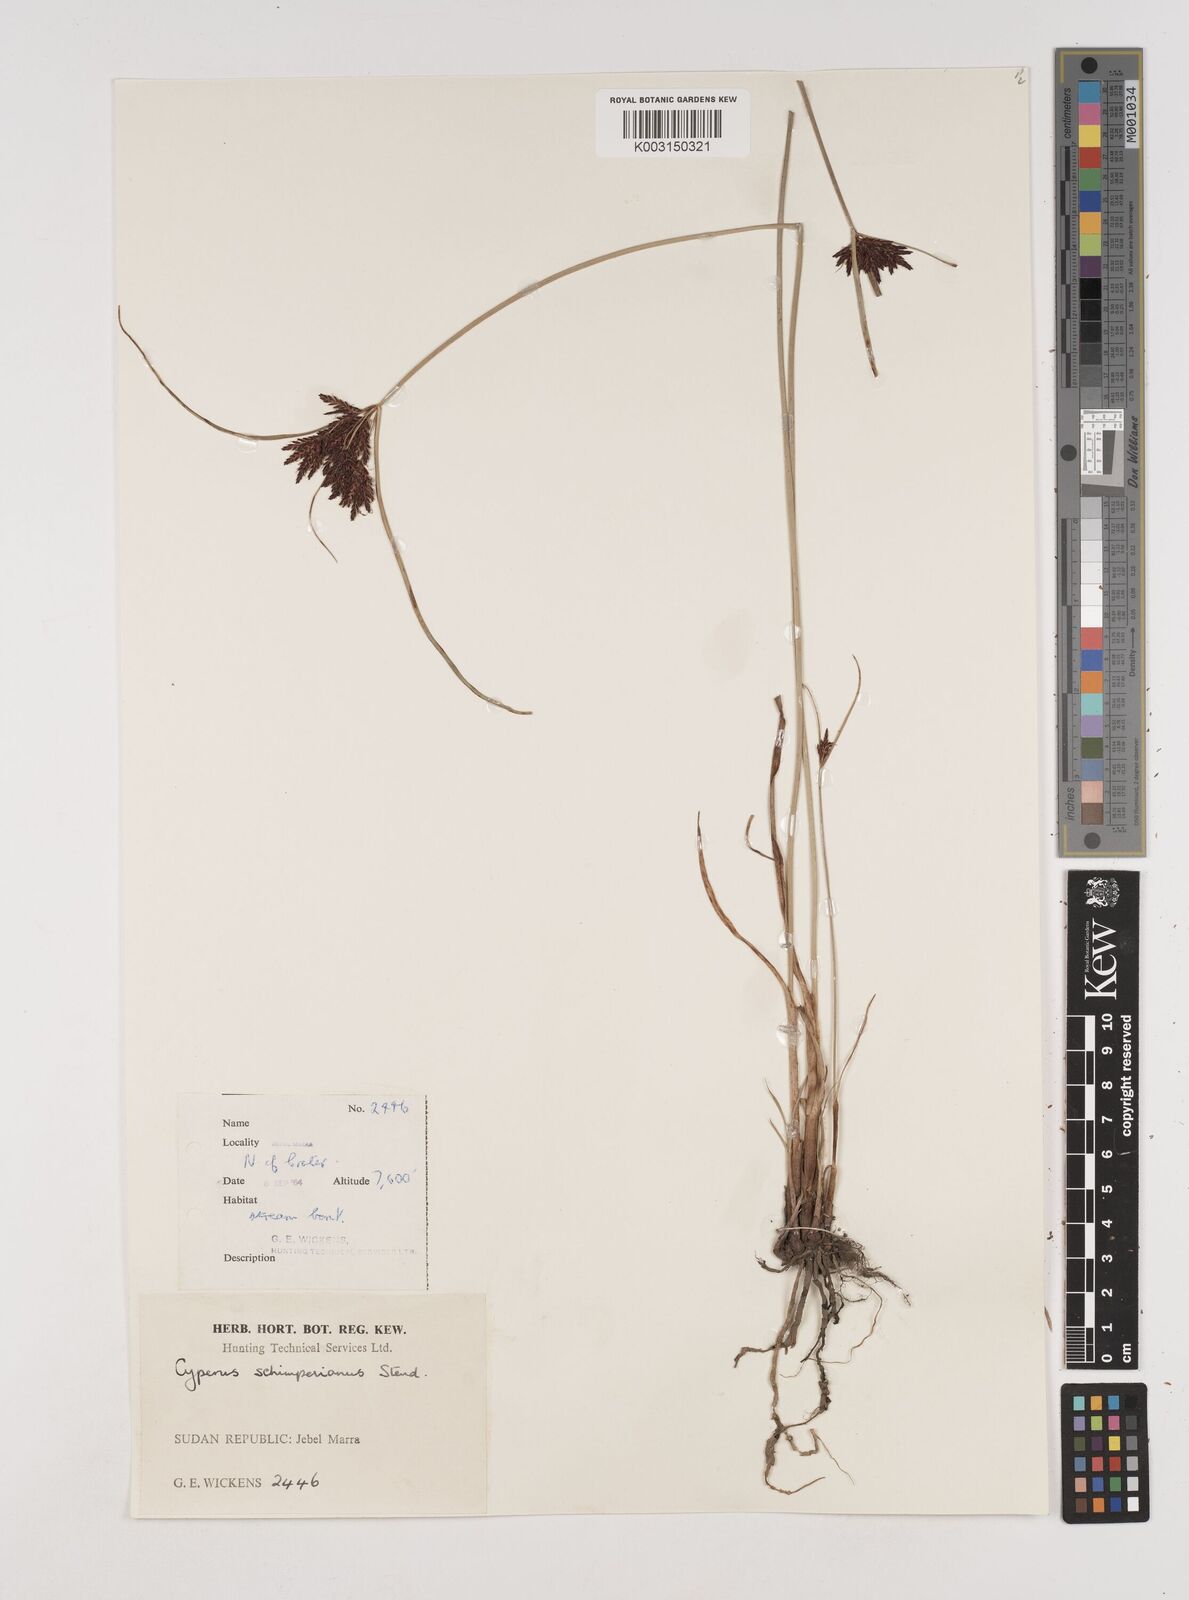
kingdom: Plantae
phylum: Tracheophyta
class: Liliopsida
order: Poales
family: Cyperaceae
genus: Cyperus
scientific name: Cyperus schimperianus
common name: Schimper flatsedge
